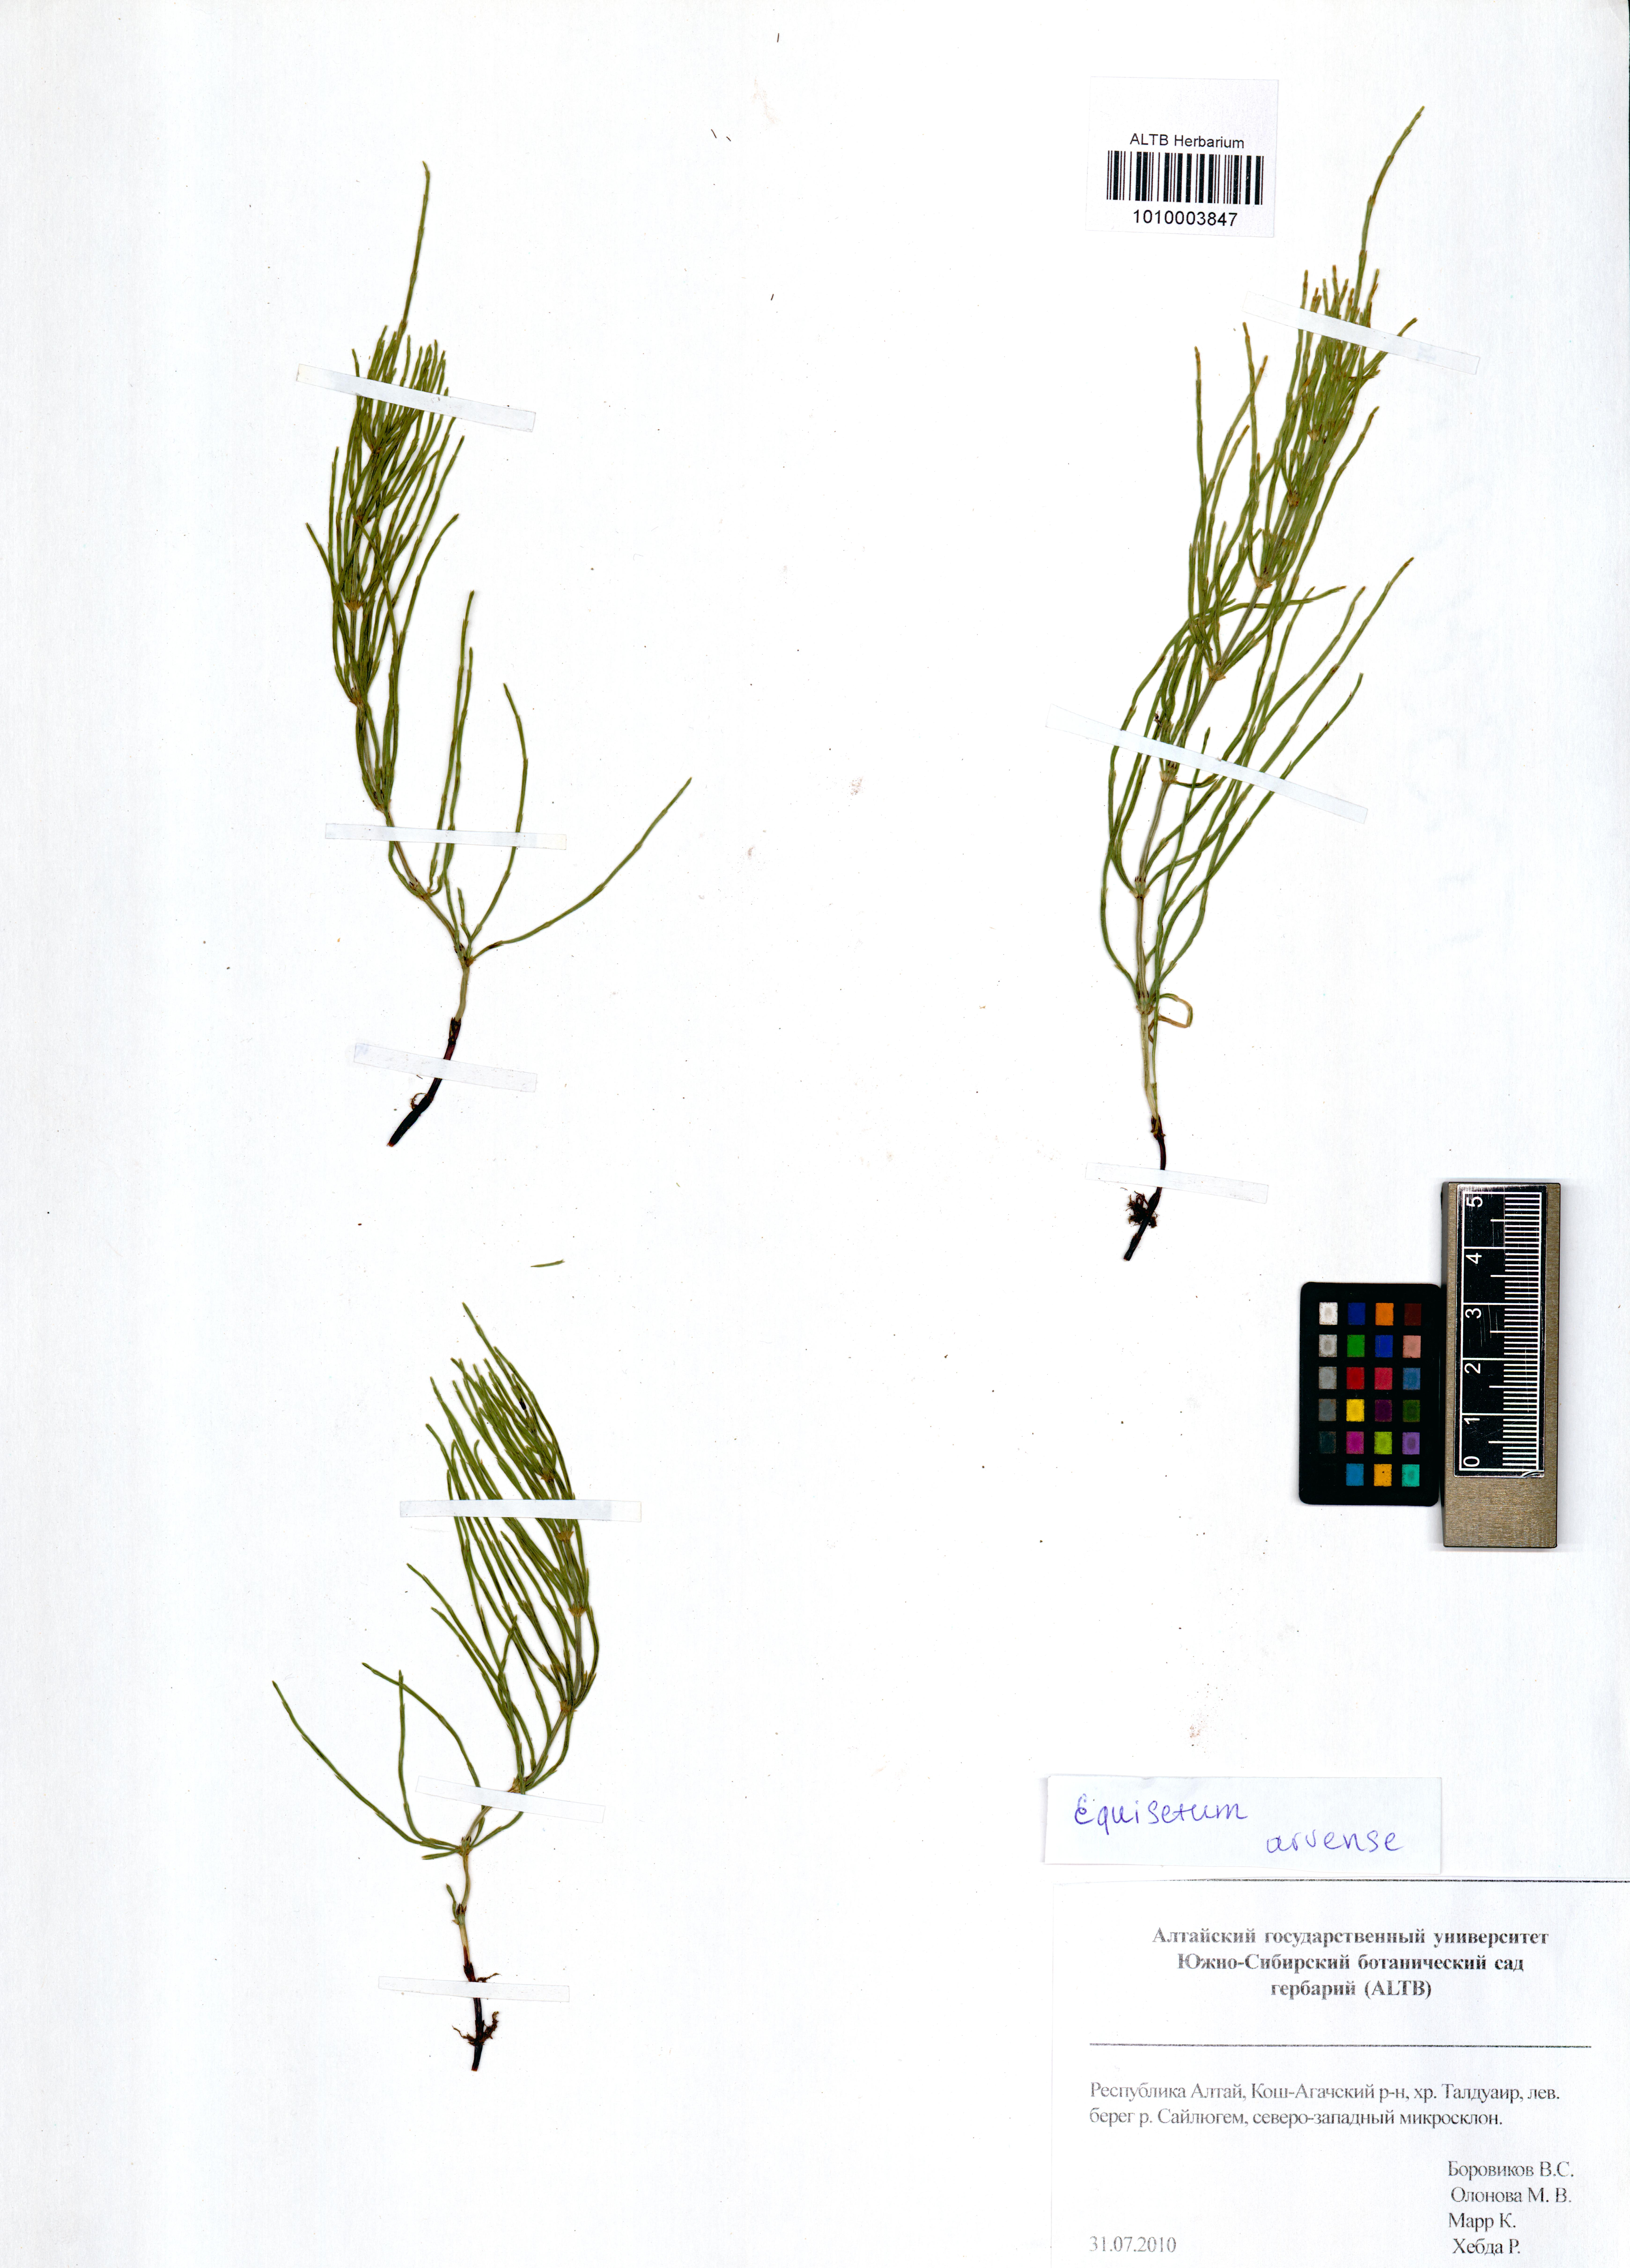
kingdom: Plantae
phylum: Tracheophyta
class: Polypodiopsida
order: Equisetales
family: Equisetaceae
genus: Equisetum
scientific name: Equisetum arvense
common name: Field horsetail
